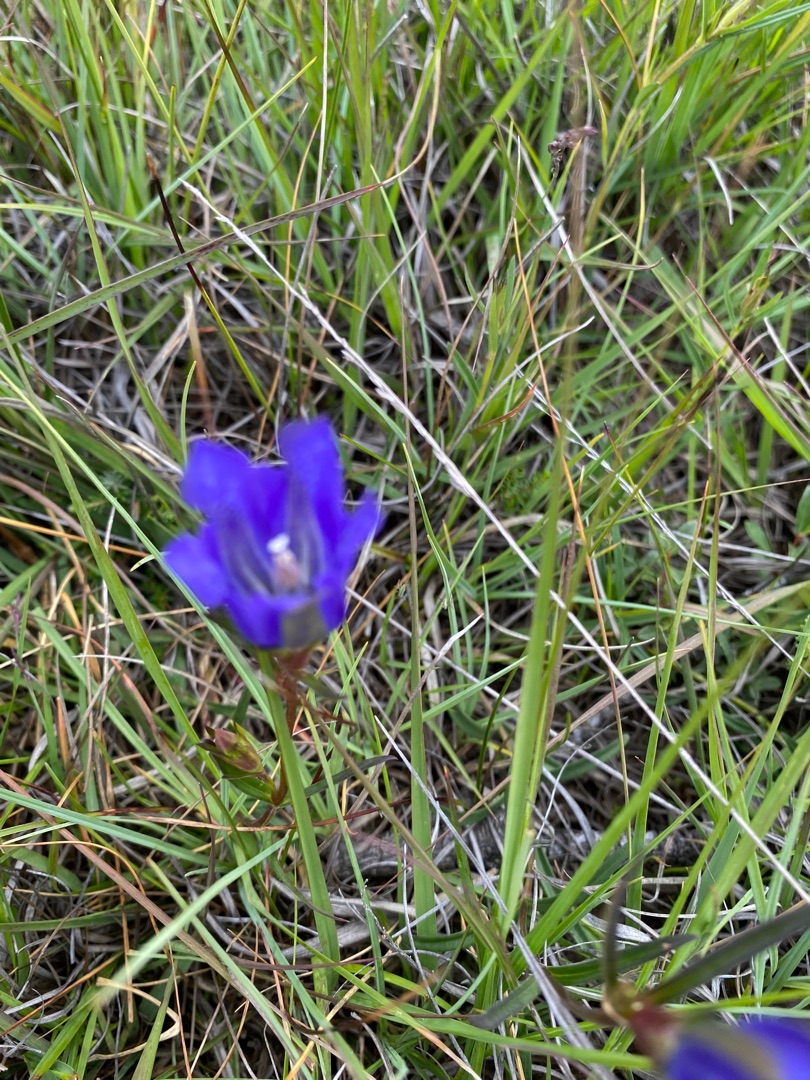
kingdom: Plantae
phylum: Tracheophyta
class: Magnoliopsida
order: Gentianales
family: Gentianaceae
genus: Gentiana
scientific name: Gentiana pneumonanthe
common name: Klokke-ensian
